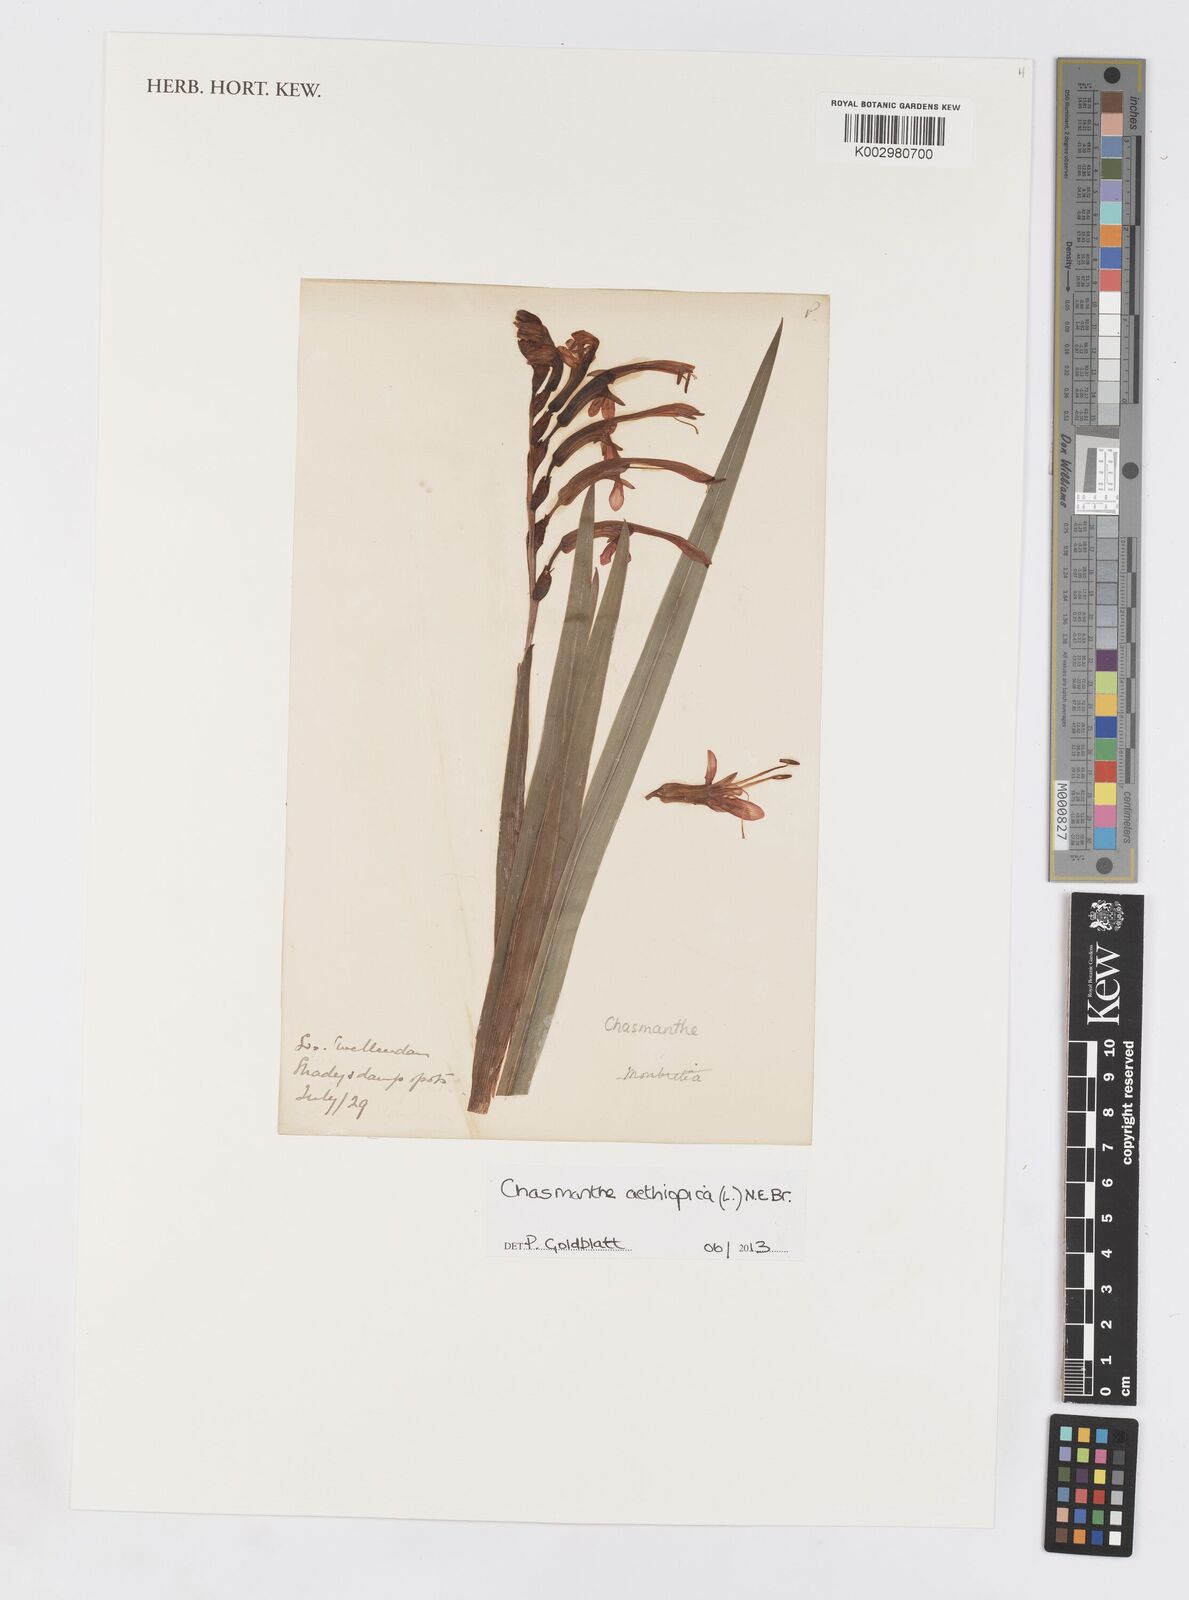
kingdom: Plantae
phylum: Tracheophyta
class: Liliopsida
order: Asparagales
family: Iridaceae
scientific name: Iridaceae
